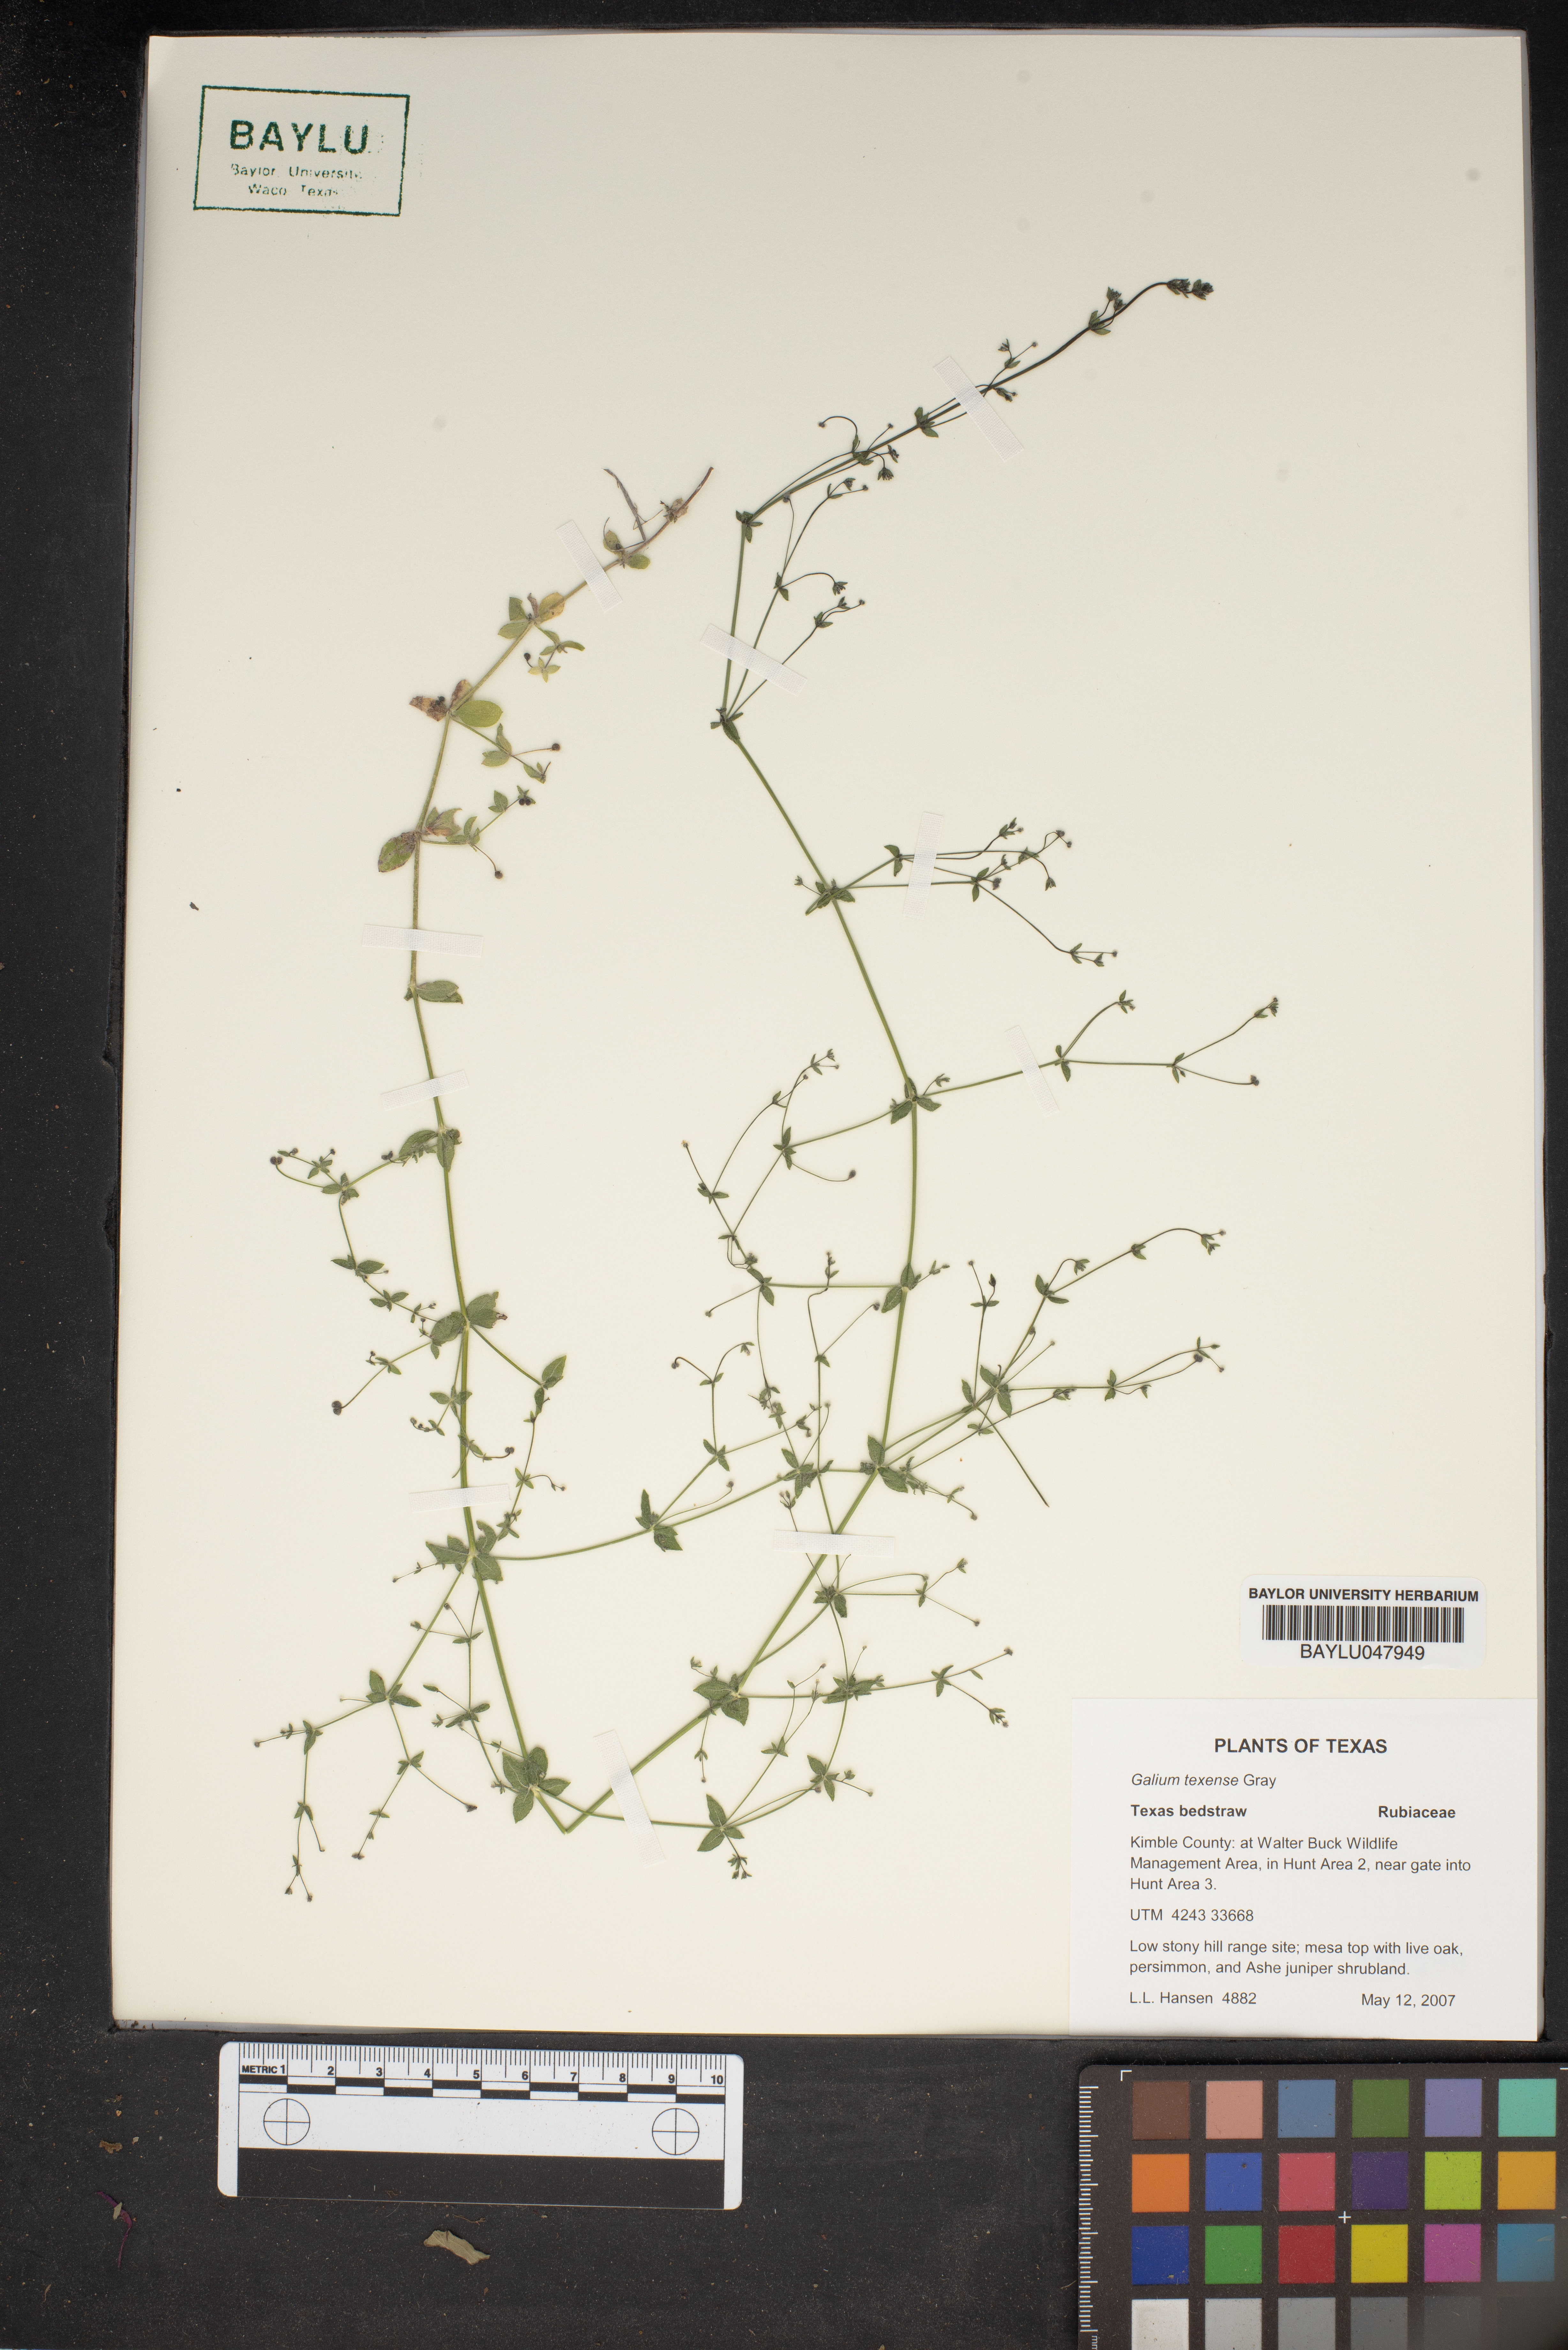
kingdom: Plantae
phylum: Tracheophyta
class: Magnoliopsida
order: Gentianales
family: Rubiaceae
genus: Galium
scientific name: Galium texense
